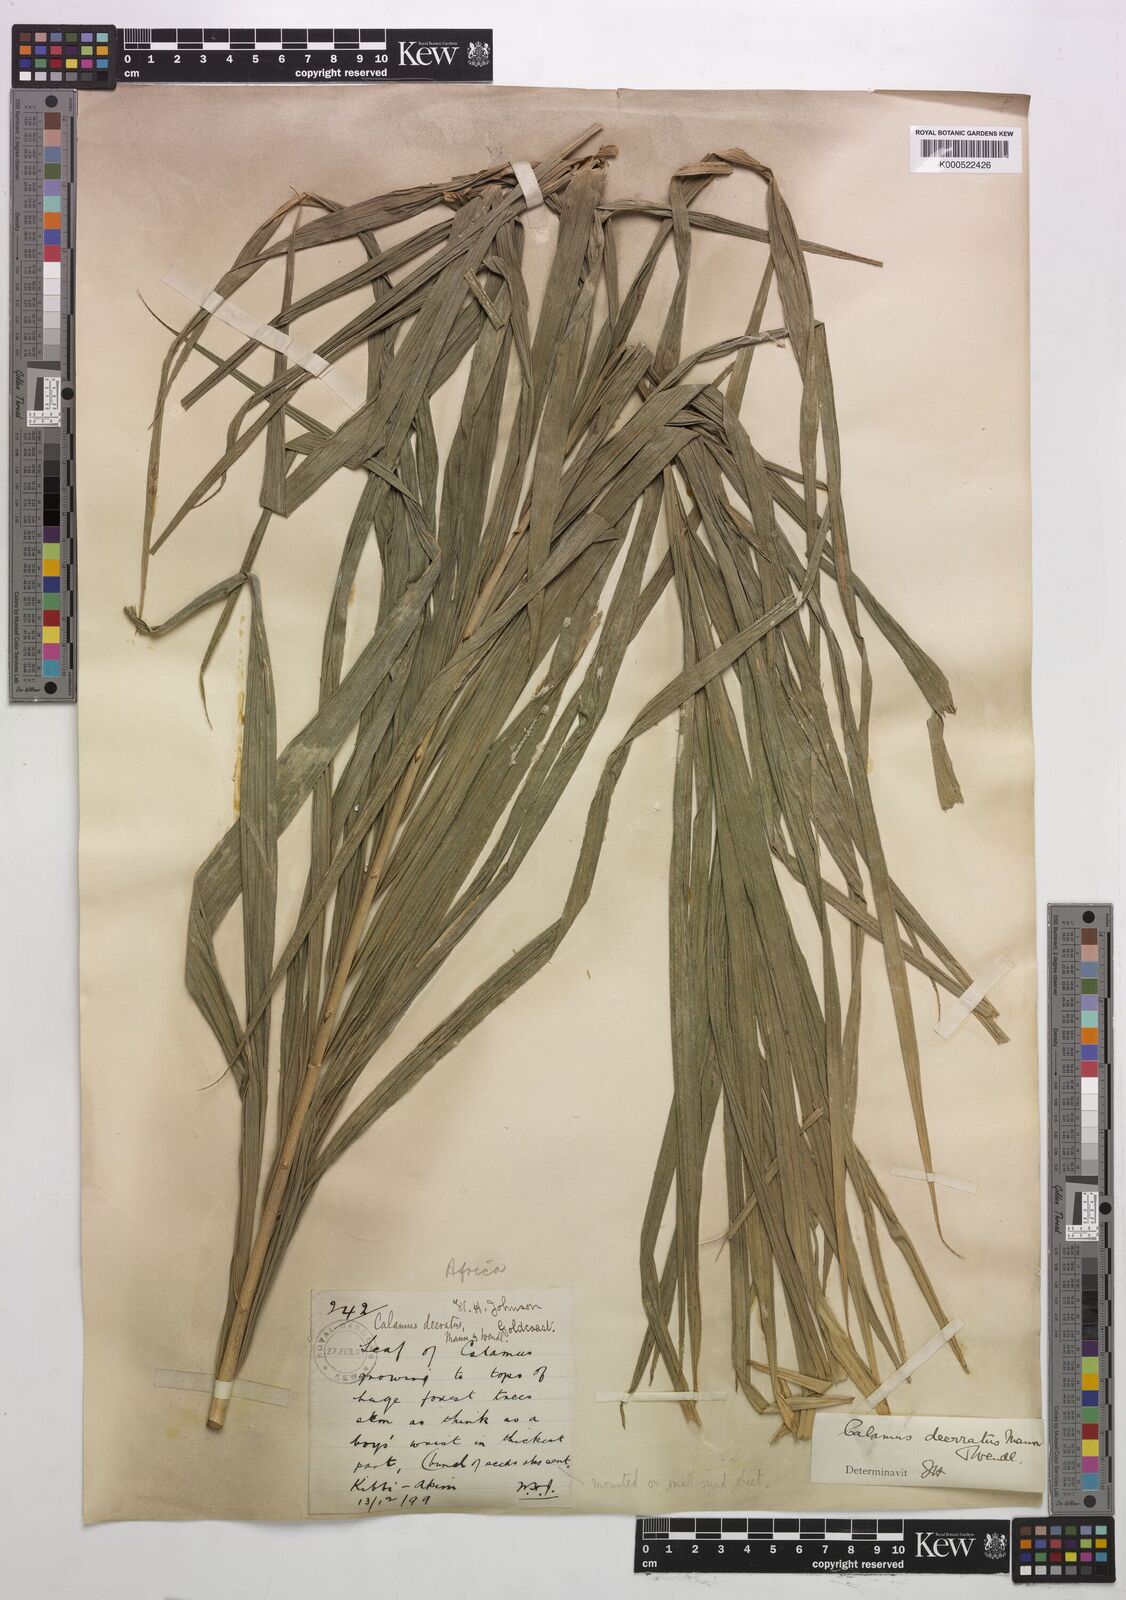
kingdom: Plantae
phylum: Tracheophyta
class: Liliopsida
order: Arecales
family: Arecaceae
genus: Calamus
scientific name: Calamus deerratus
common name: Rattan
